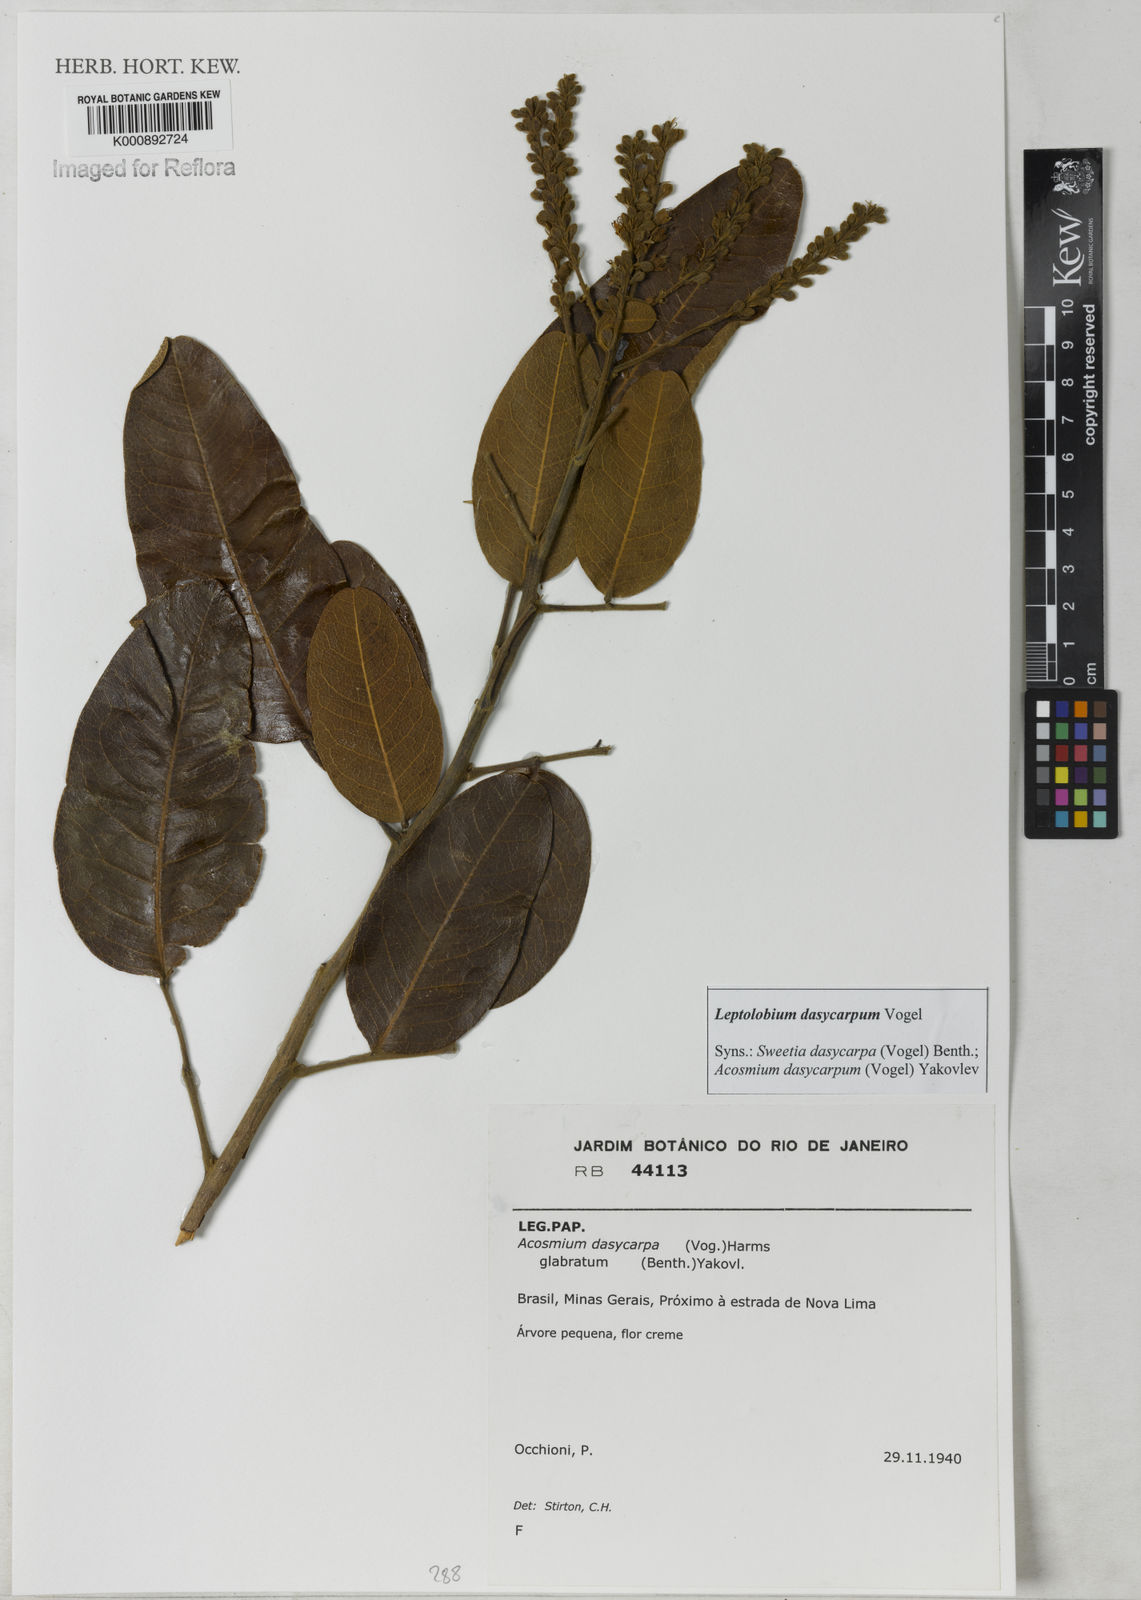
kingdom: Plantae
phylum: Tracheophyta
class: Magnoliopsida
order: Fabales
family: Fabaceae
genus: Leptolobium
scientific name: Leptolobium
